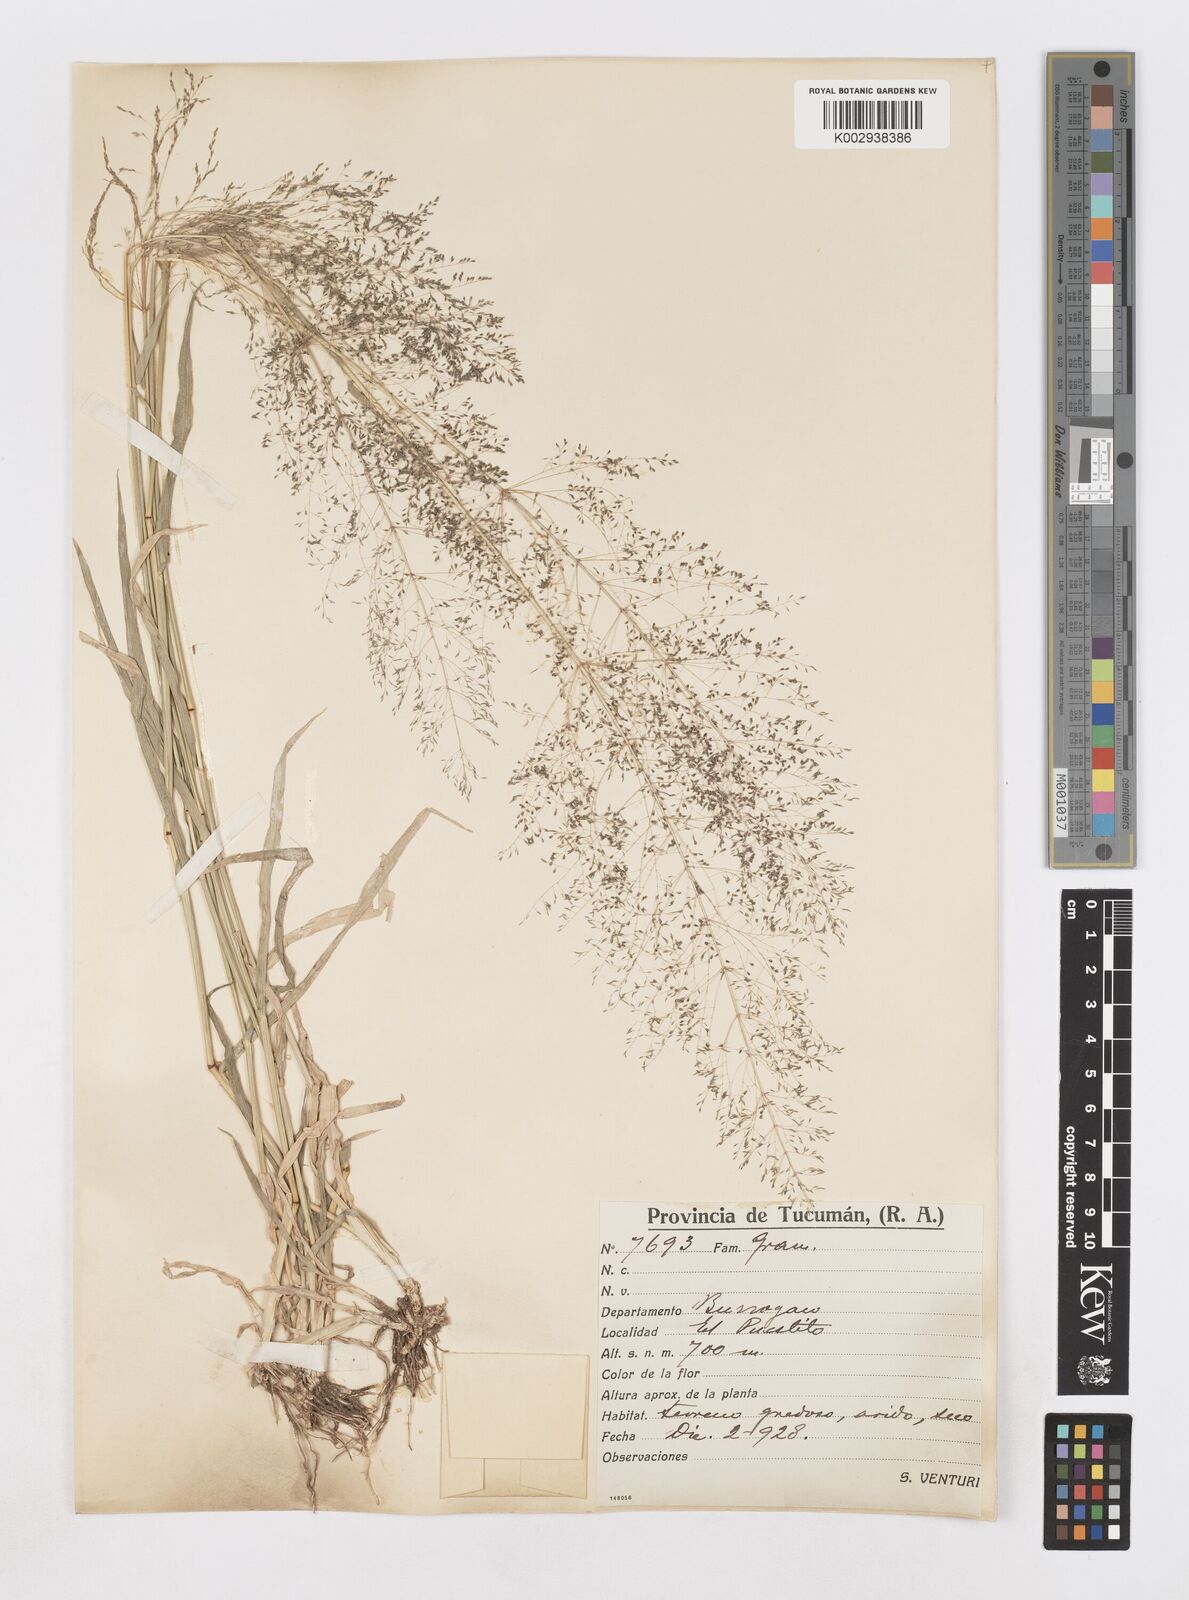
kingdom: Plantae
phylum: Tracheophyta
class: Liliopsida
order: Poales
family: Poaceae
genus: Sporobolus
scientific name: Sporobolus pyramidatus
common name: Whorled dropseed
